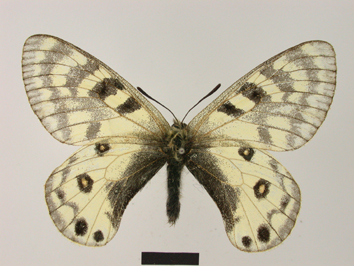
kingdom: Animalia
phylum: Arthropoda
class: Insecta
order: Lepidoptera
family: Papilionidae
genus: Parnassius
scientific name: Parnassius staudingeri
